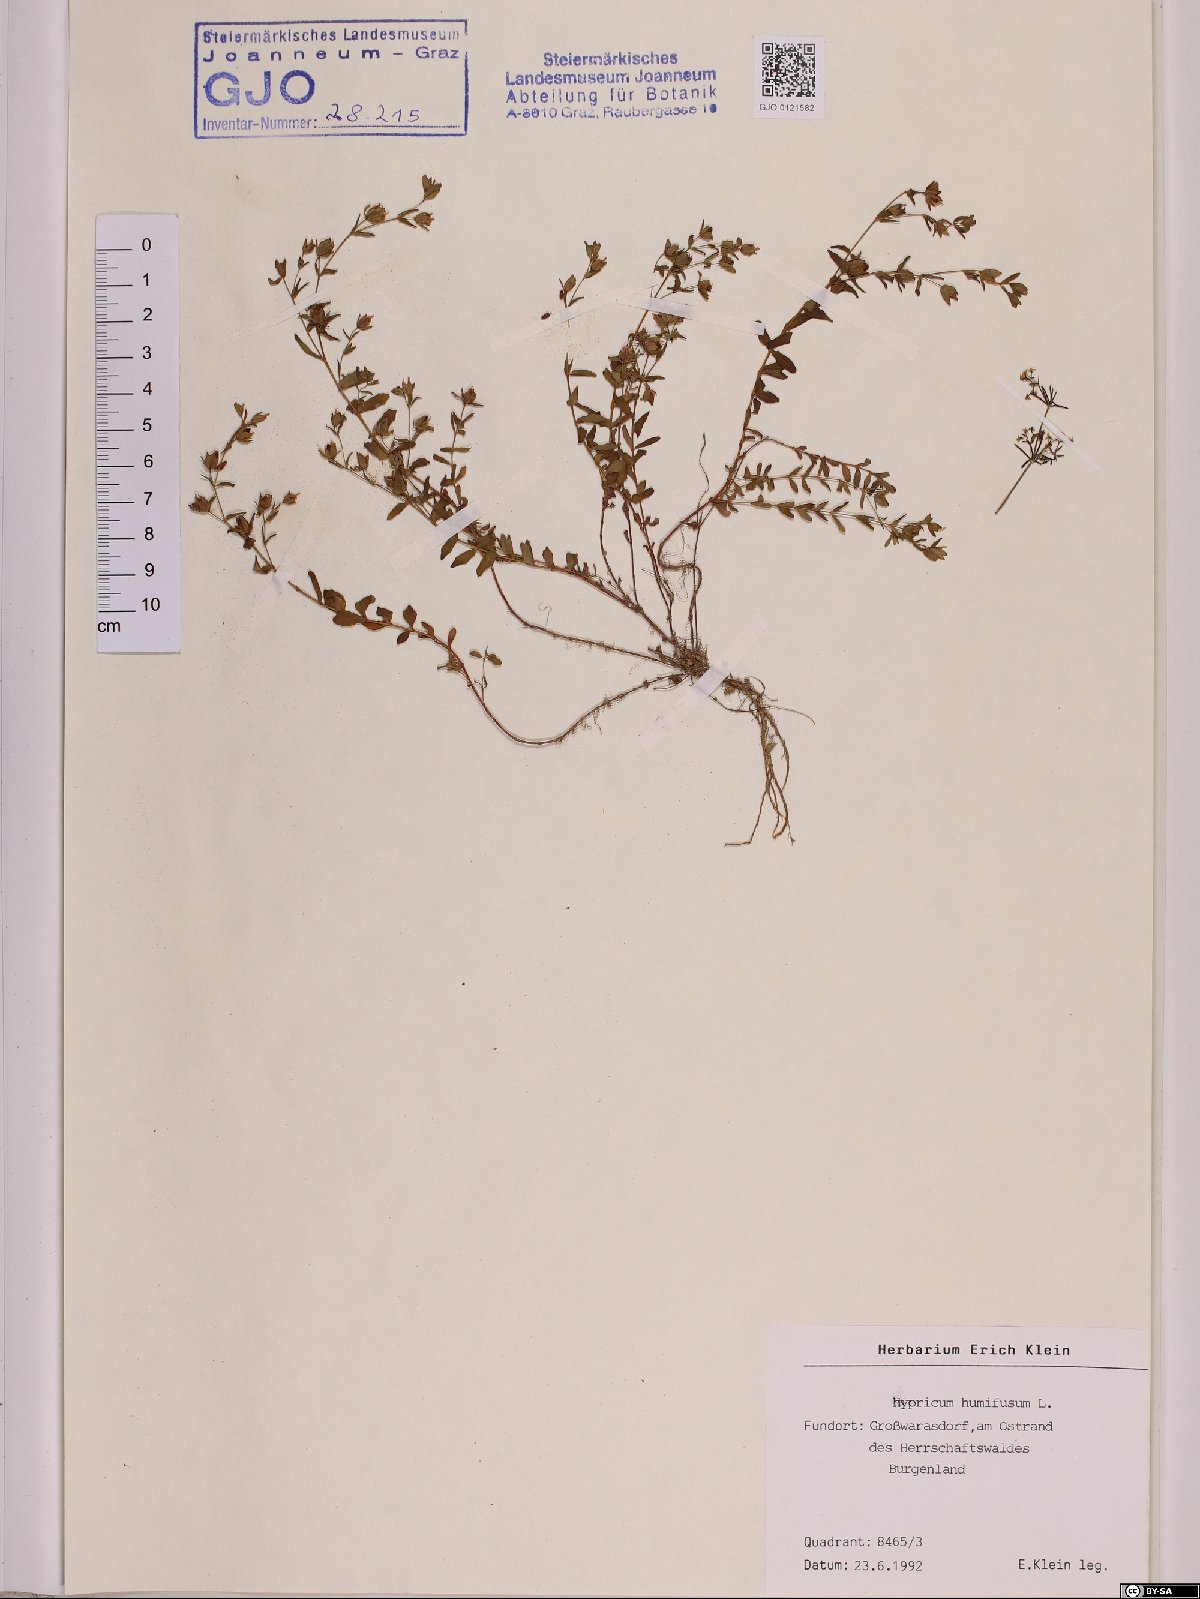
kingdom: Plantae
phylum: Tracheophyta
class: Magnoliopsida
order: Malpighiales
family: Hypericaceae
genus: Hypericum
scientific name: Hypericum humifusum
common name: Trailing st. john's-wort
